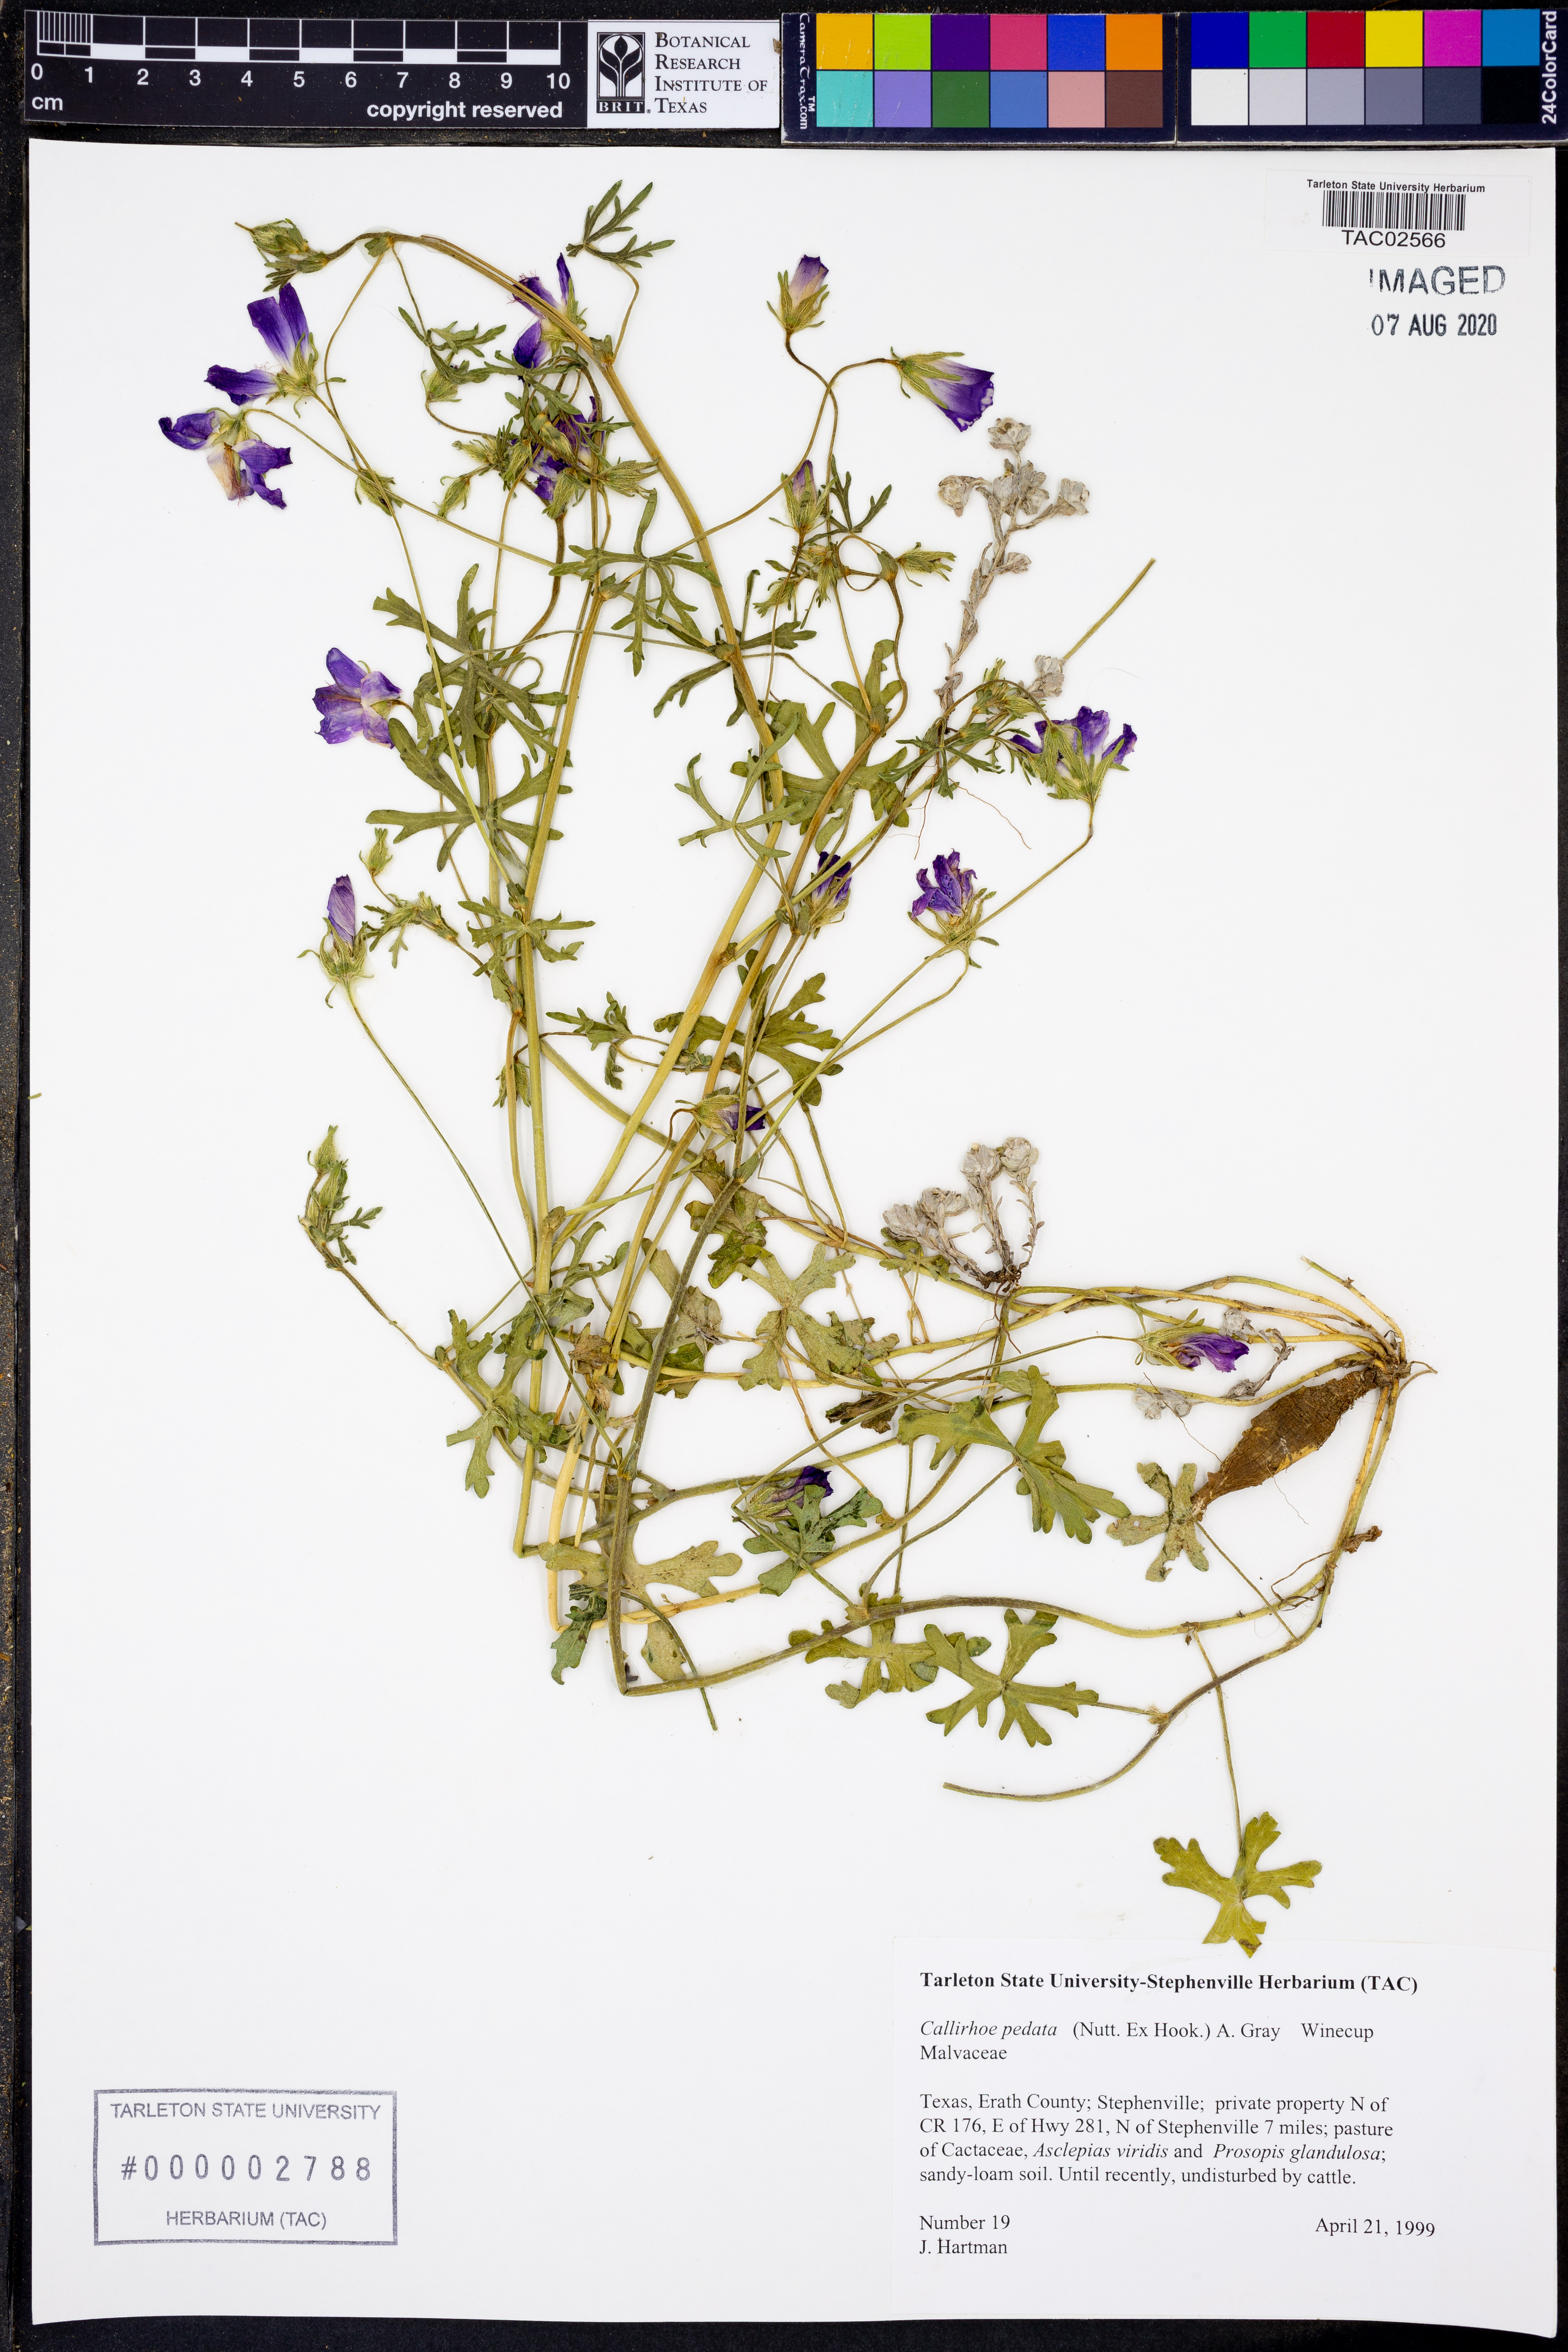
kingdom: Plantae
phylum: Tracheophyta
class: Magnoliopsida
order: Malvales
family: Malvaceae
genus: Callirhoe
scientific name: Callirhoe pedata
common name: Finger poppy-mallow
